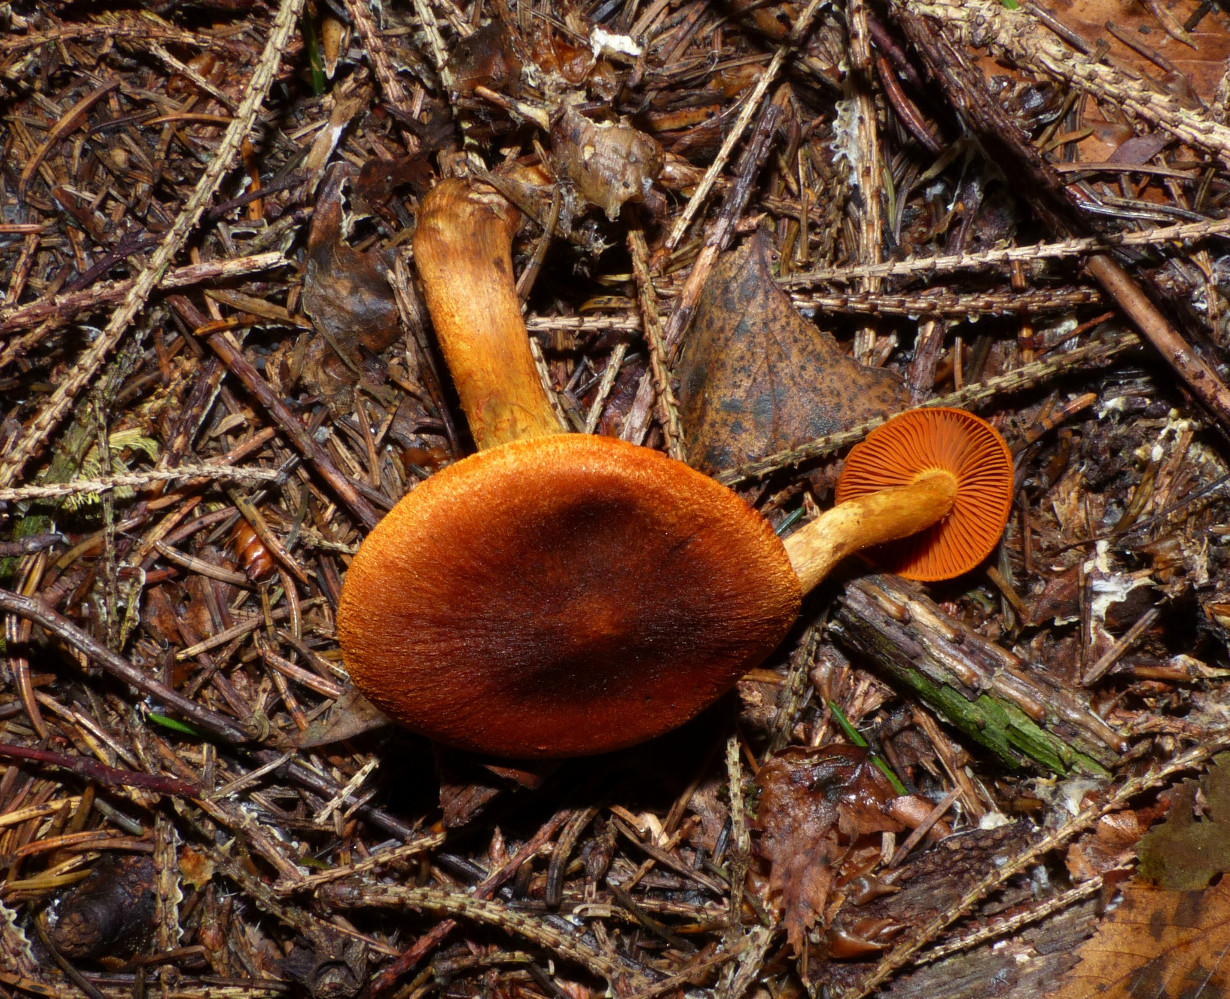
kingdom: Fungi
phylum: Basidiomycota
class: Agaricomycetes
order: Agaricales
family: Cortinariaceae
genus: Cortinarius
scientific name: Cortinarius malicorius
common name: grønkødet slørhat
